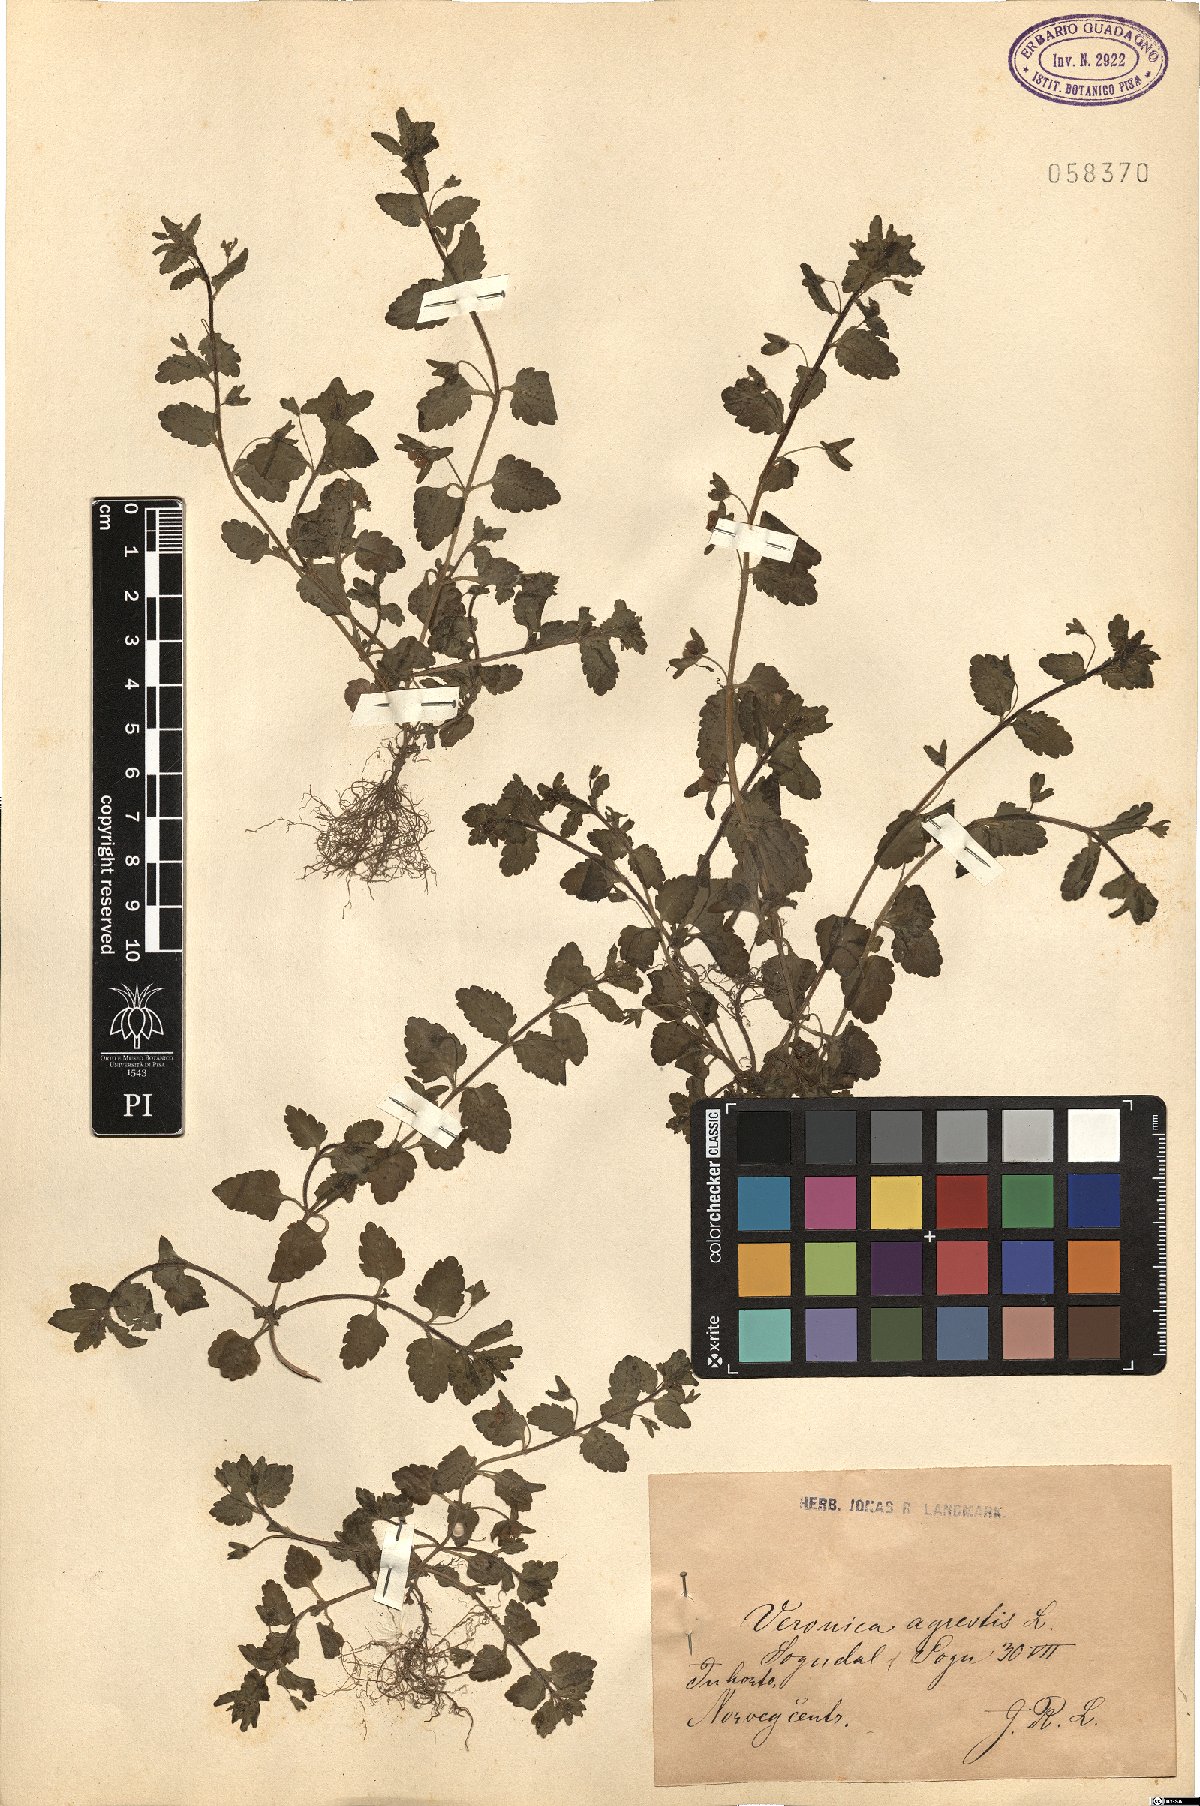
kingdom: Plantae
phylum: Tracheophyta
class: Magnoliopsida
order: Lamiales
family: Plantaginaceae
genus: Veronica
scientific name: Veronica agrestis
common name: Green field-speedwell
